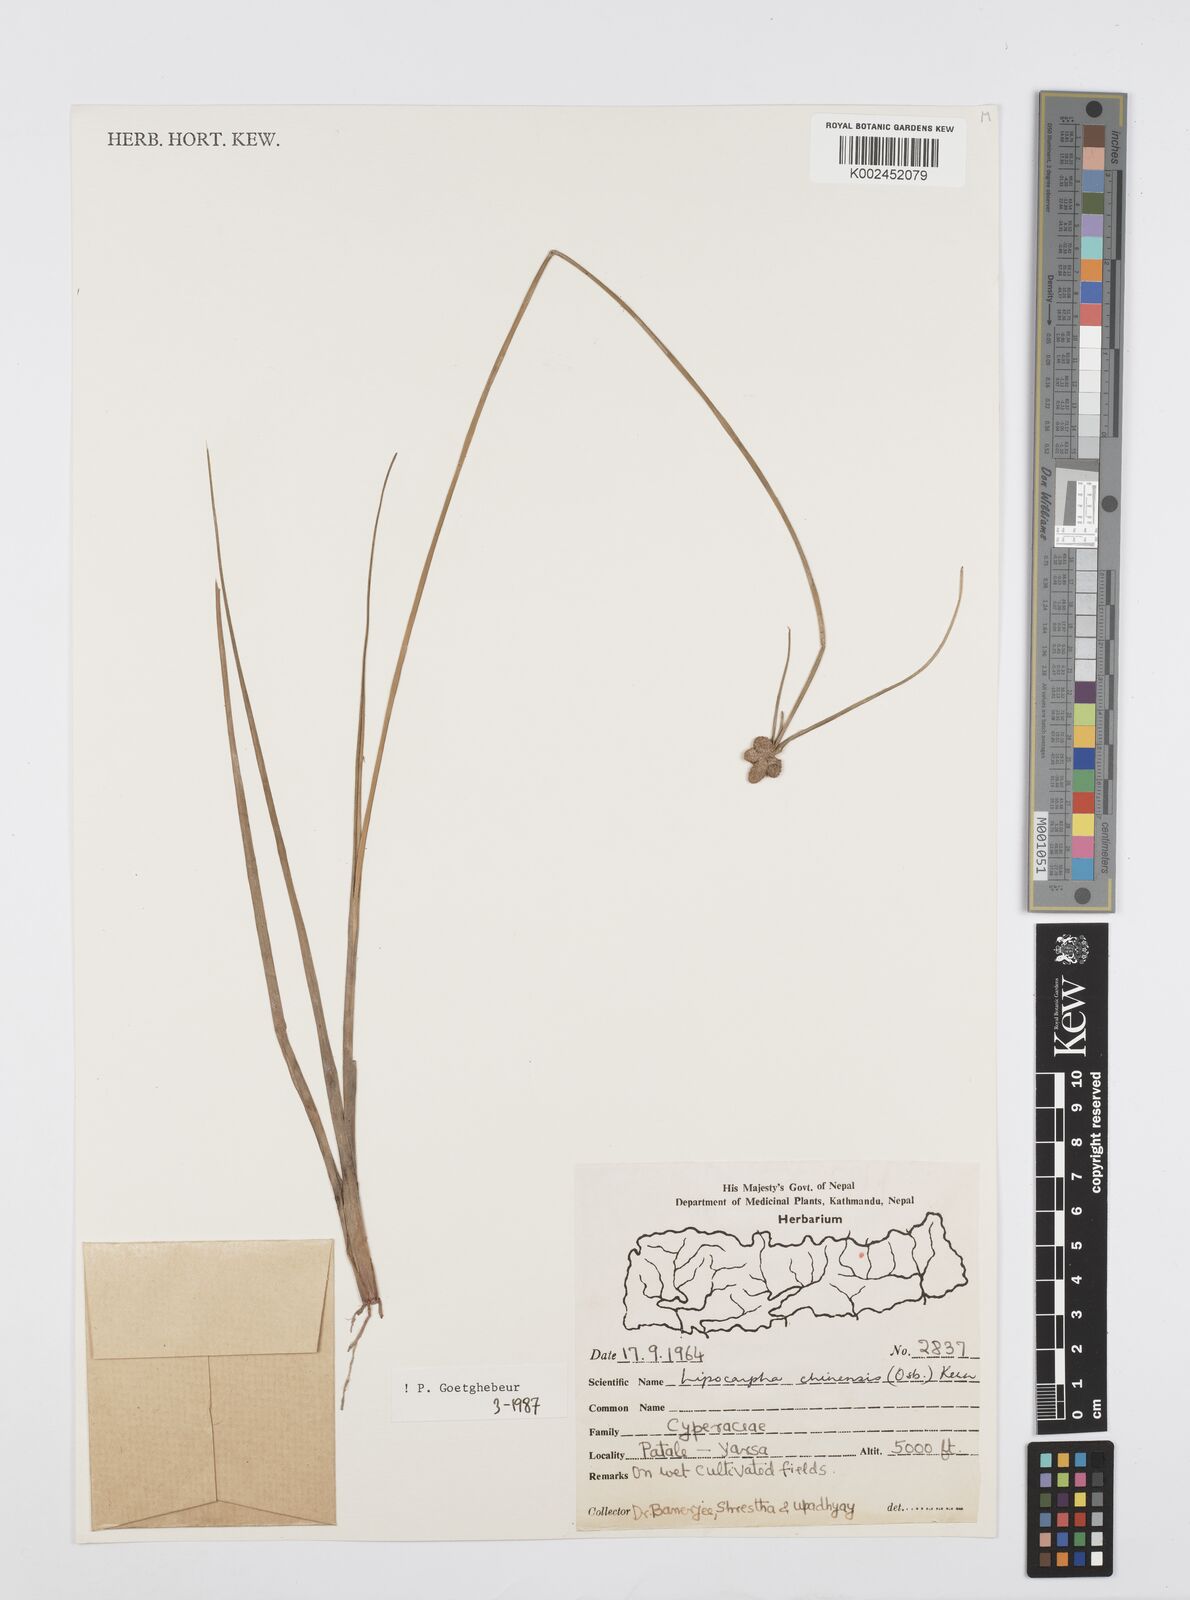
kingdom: Plantae
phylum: Tracheophyta
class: Liliopsida
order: Poales
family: Cyperaceae
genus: Cyperus
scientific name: Cyperus
